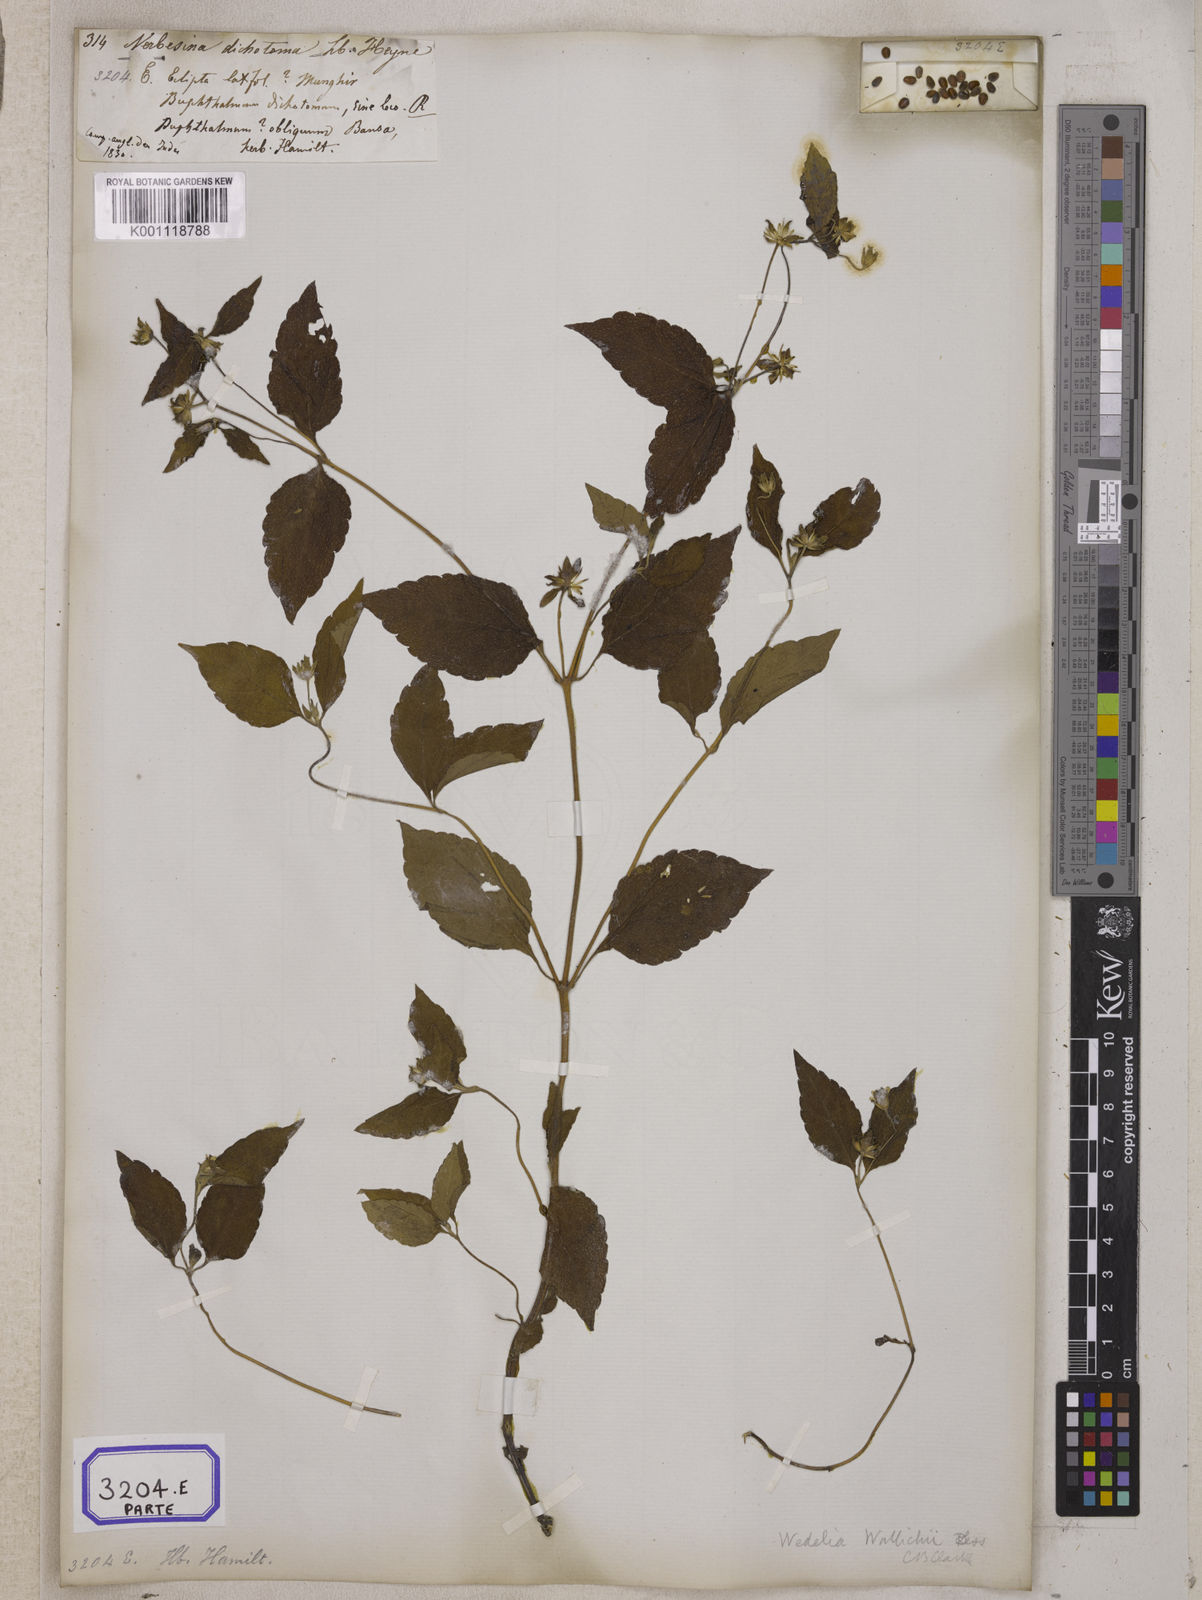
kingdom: Plantae
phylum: Tracheophyta
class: Magnoliopsida
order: Asterales
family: Asteraceae
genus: Blainvillea
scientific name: Blainvillea acmella
